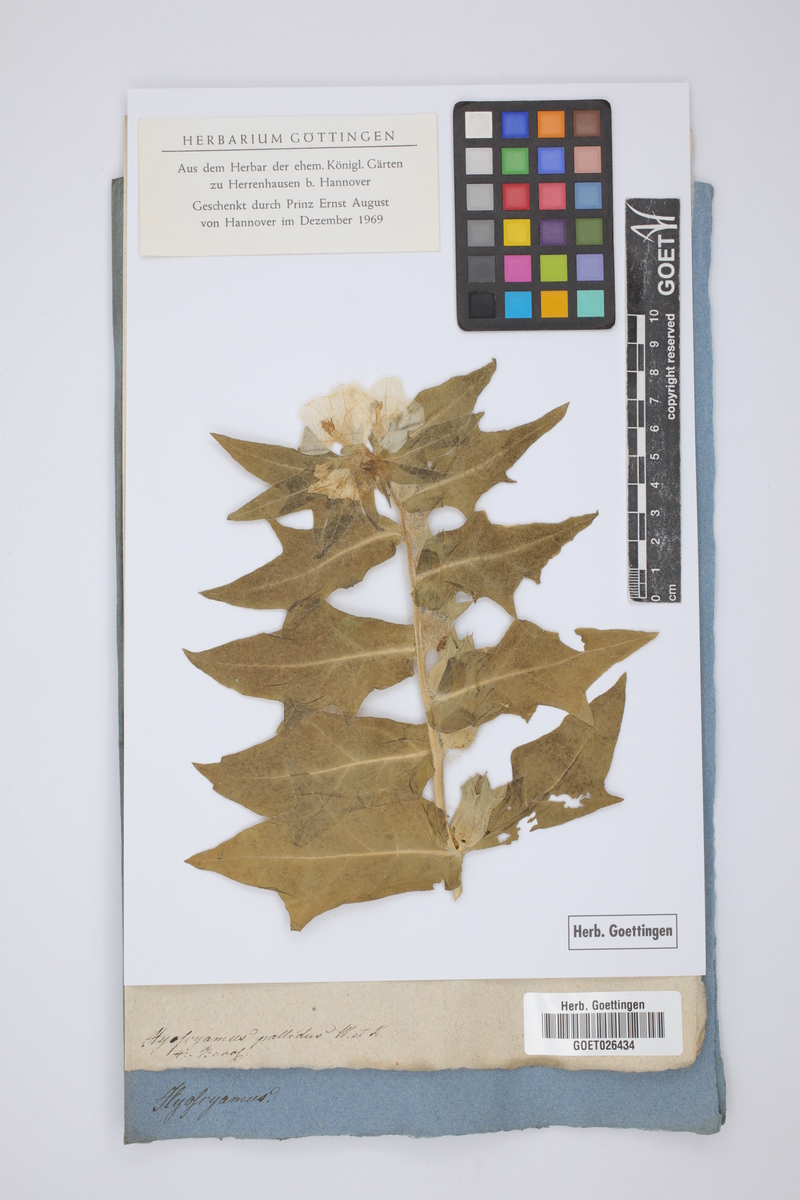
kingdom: Plantae
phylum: Tracheophyta
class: Magnoliopsida
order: Solanales
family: Solanaceae
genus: Hyoscyamus
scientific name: Hyoscyamus niger
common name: Henbane
